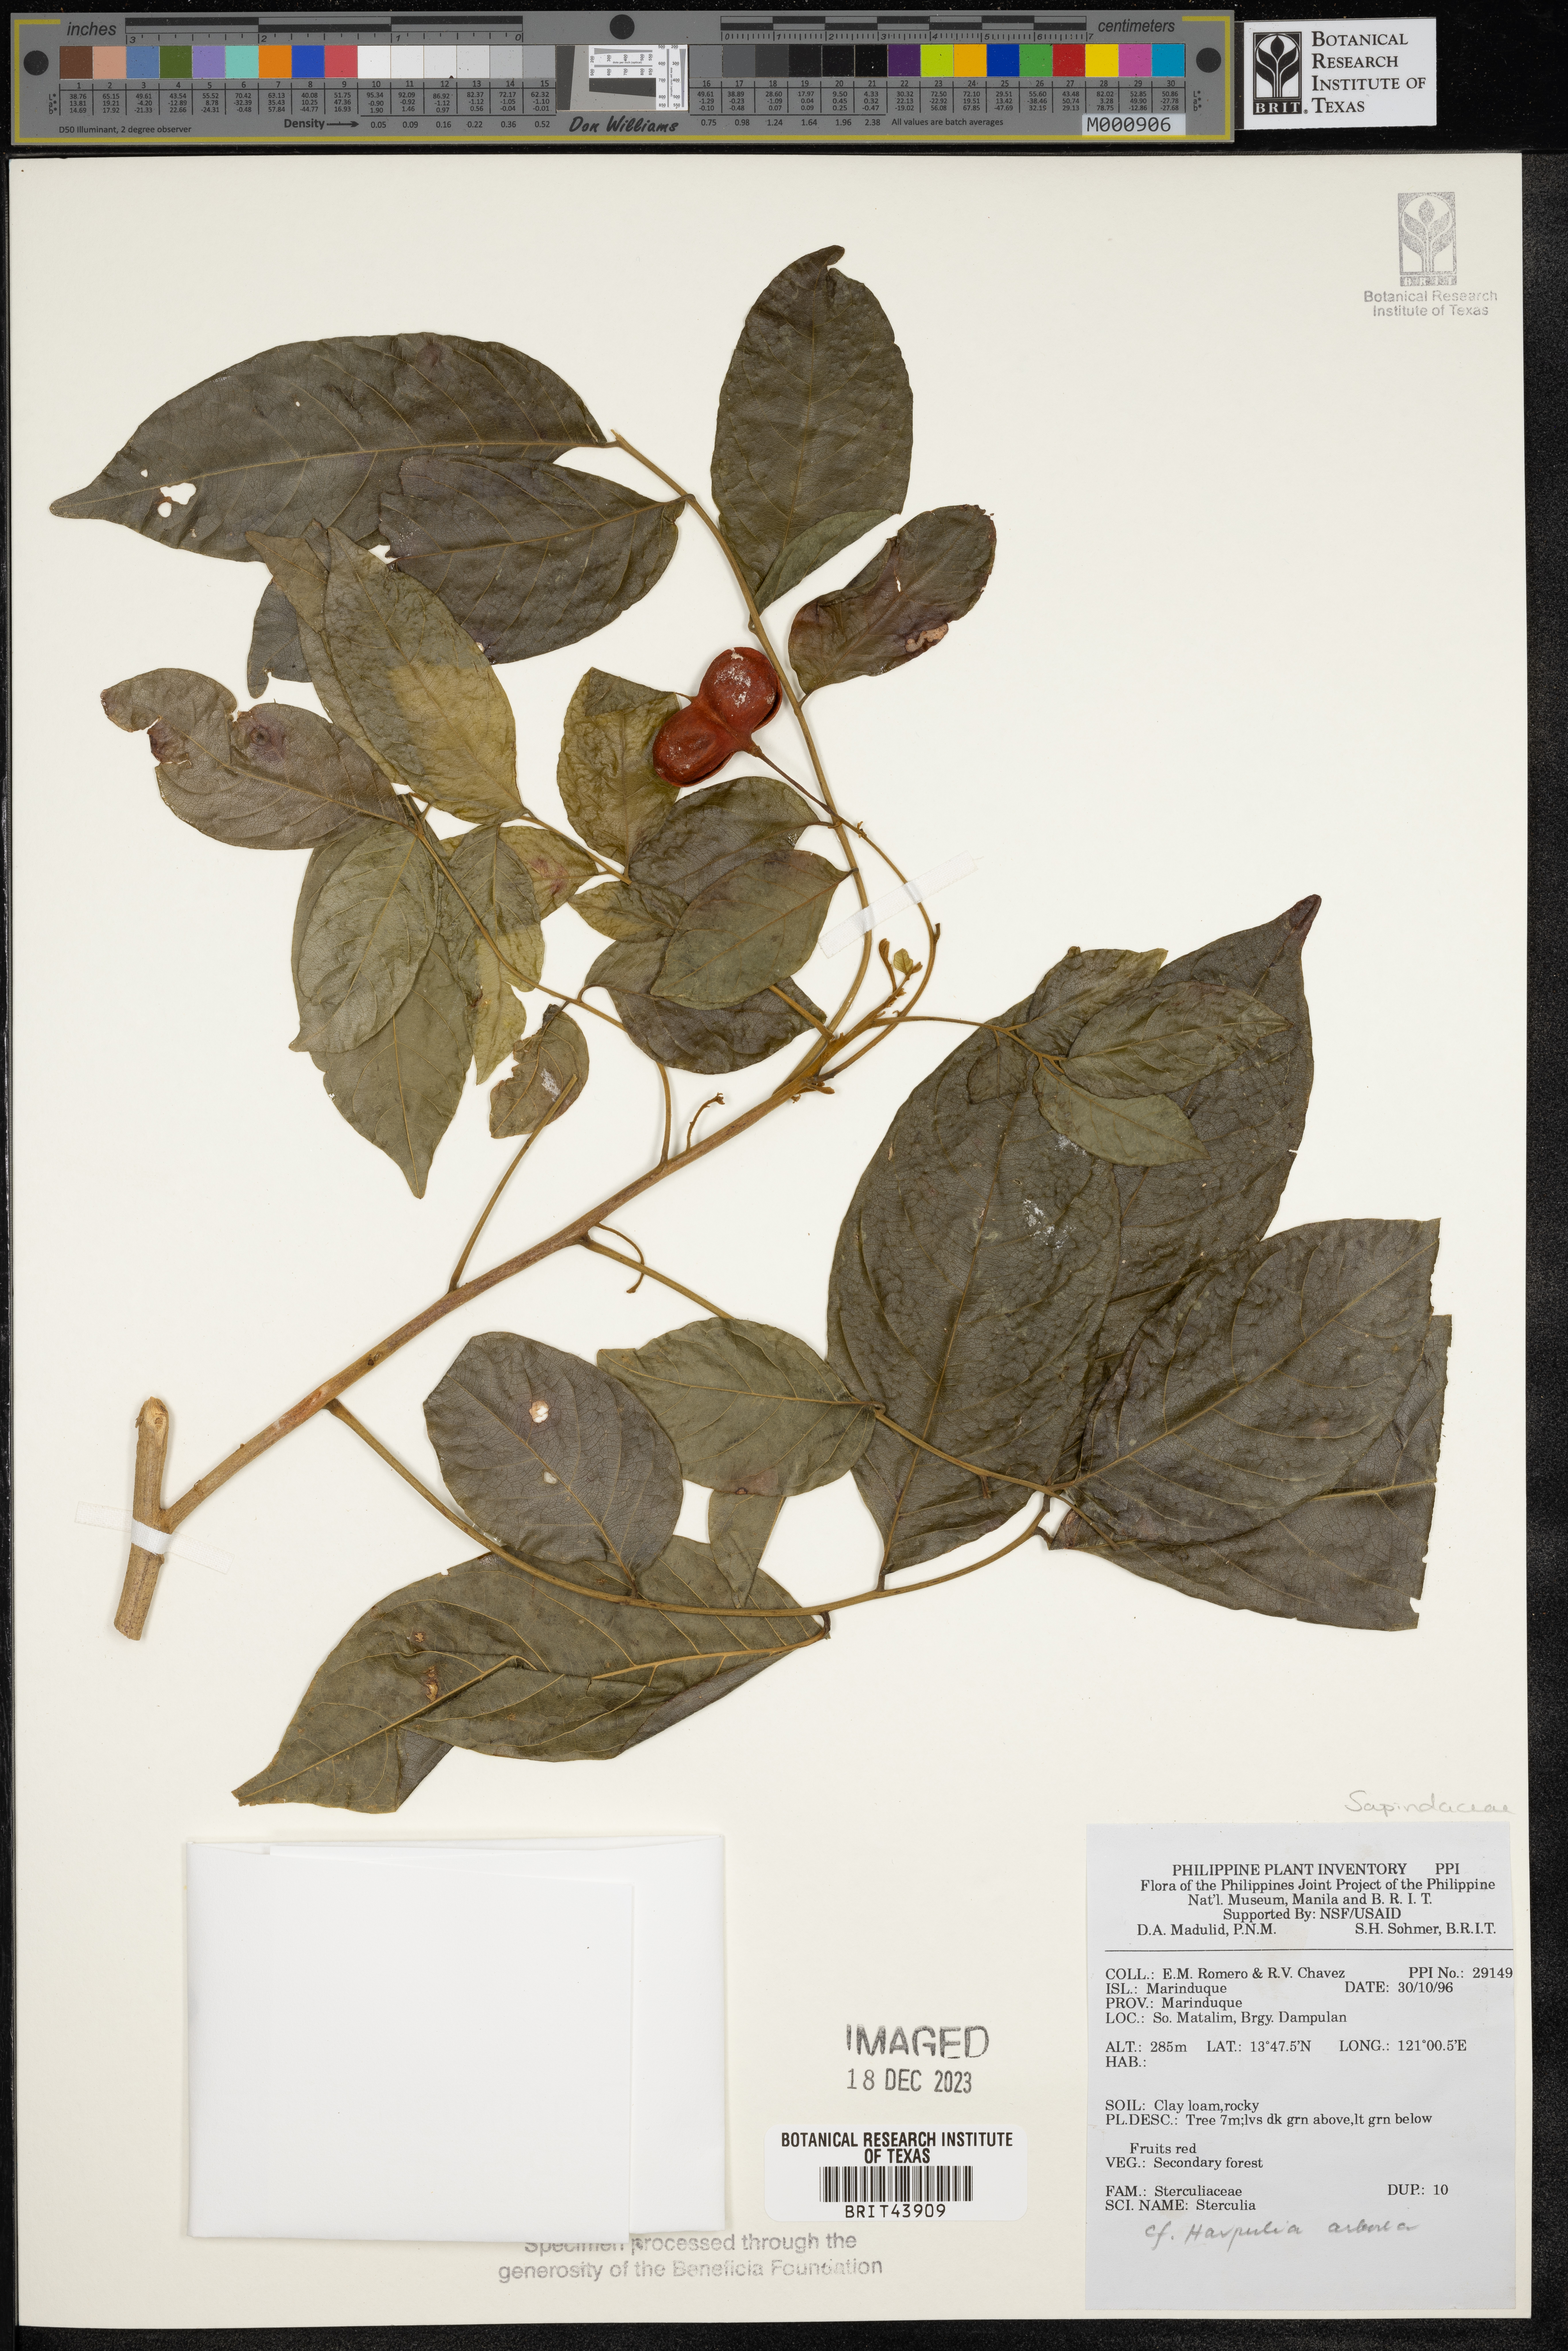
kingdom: Plantae
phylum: Tracheophyta
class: Magnoliopsida
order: Sapindales
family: Sapindaceae
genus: Harpullia
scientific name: Harpullia arborea
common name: Tulip-wood tree
